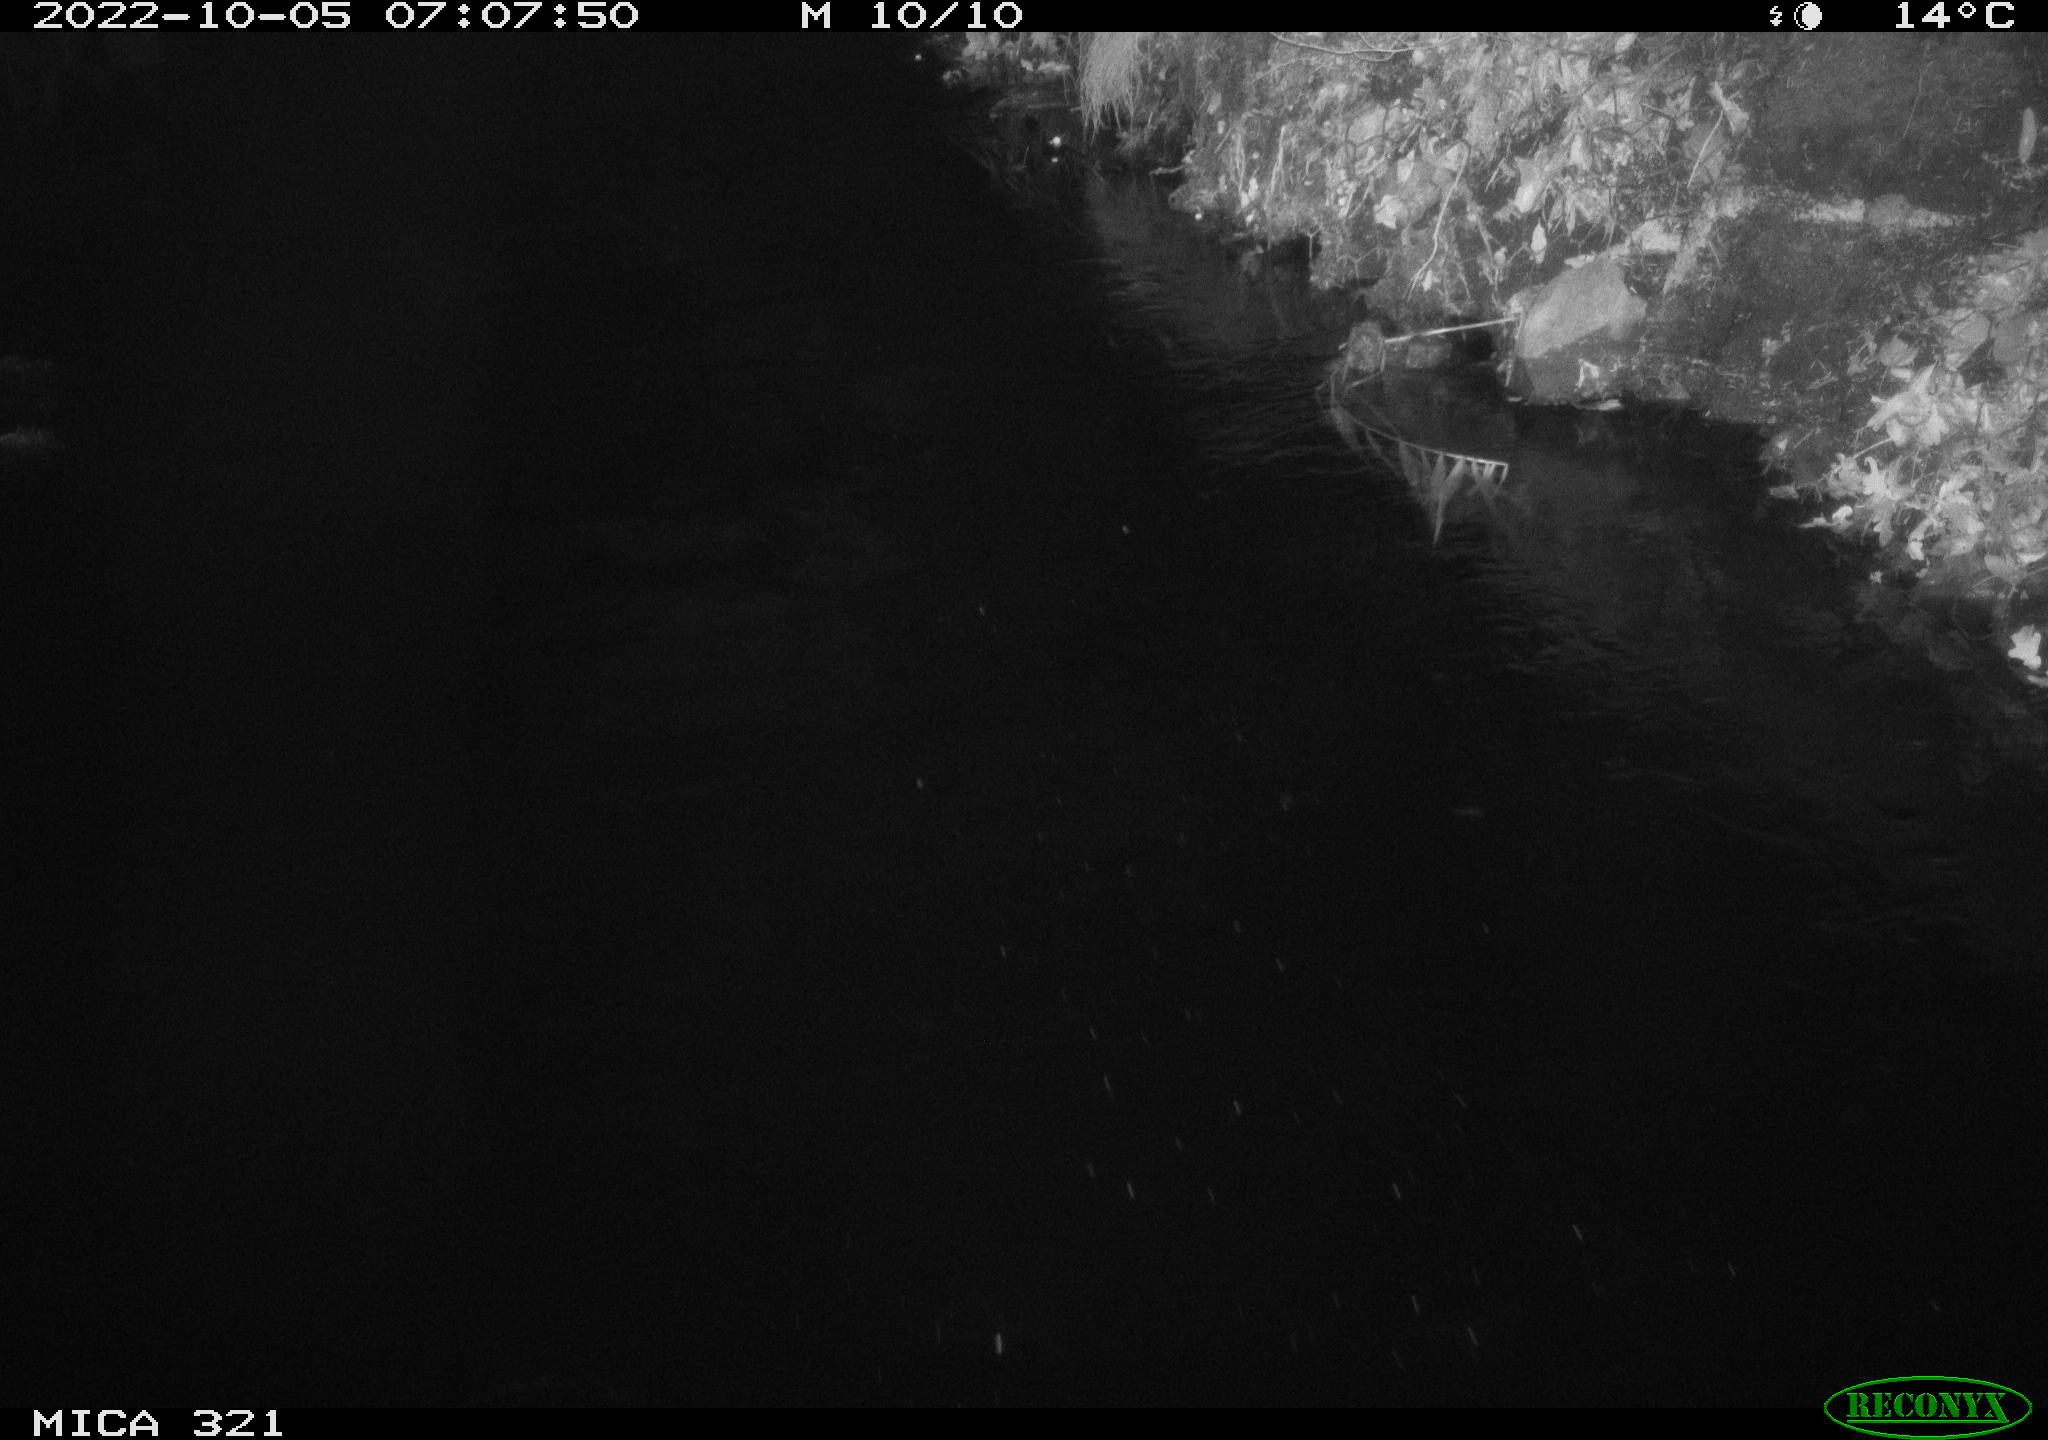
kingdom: Animalia
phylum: Chordata
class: Aves
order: Anseriformes
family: Anatidae
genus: Anas
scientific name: Anas
